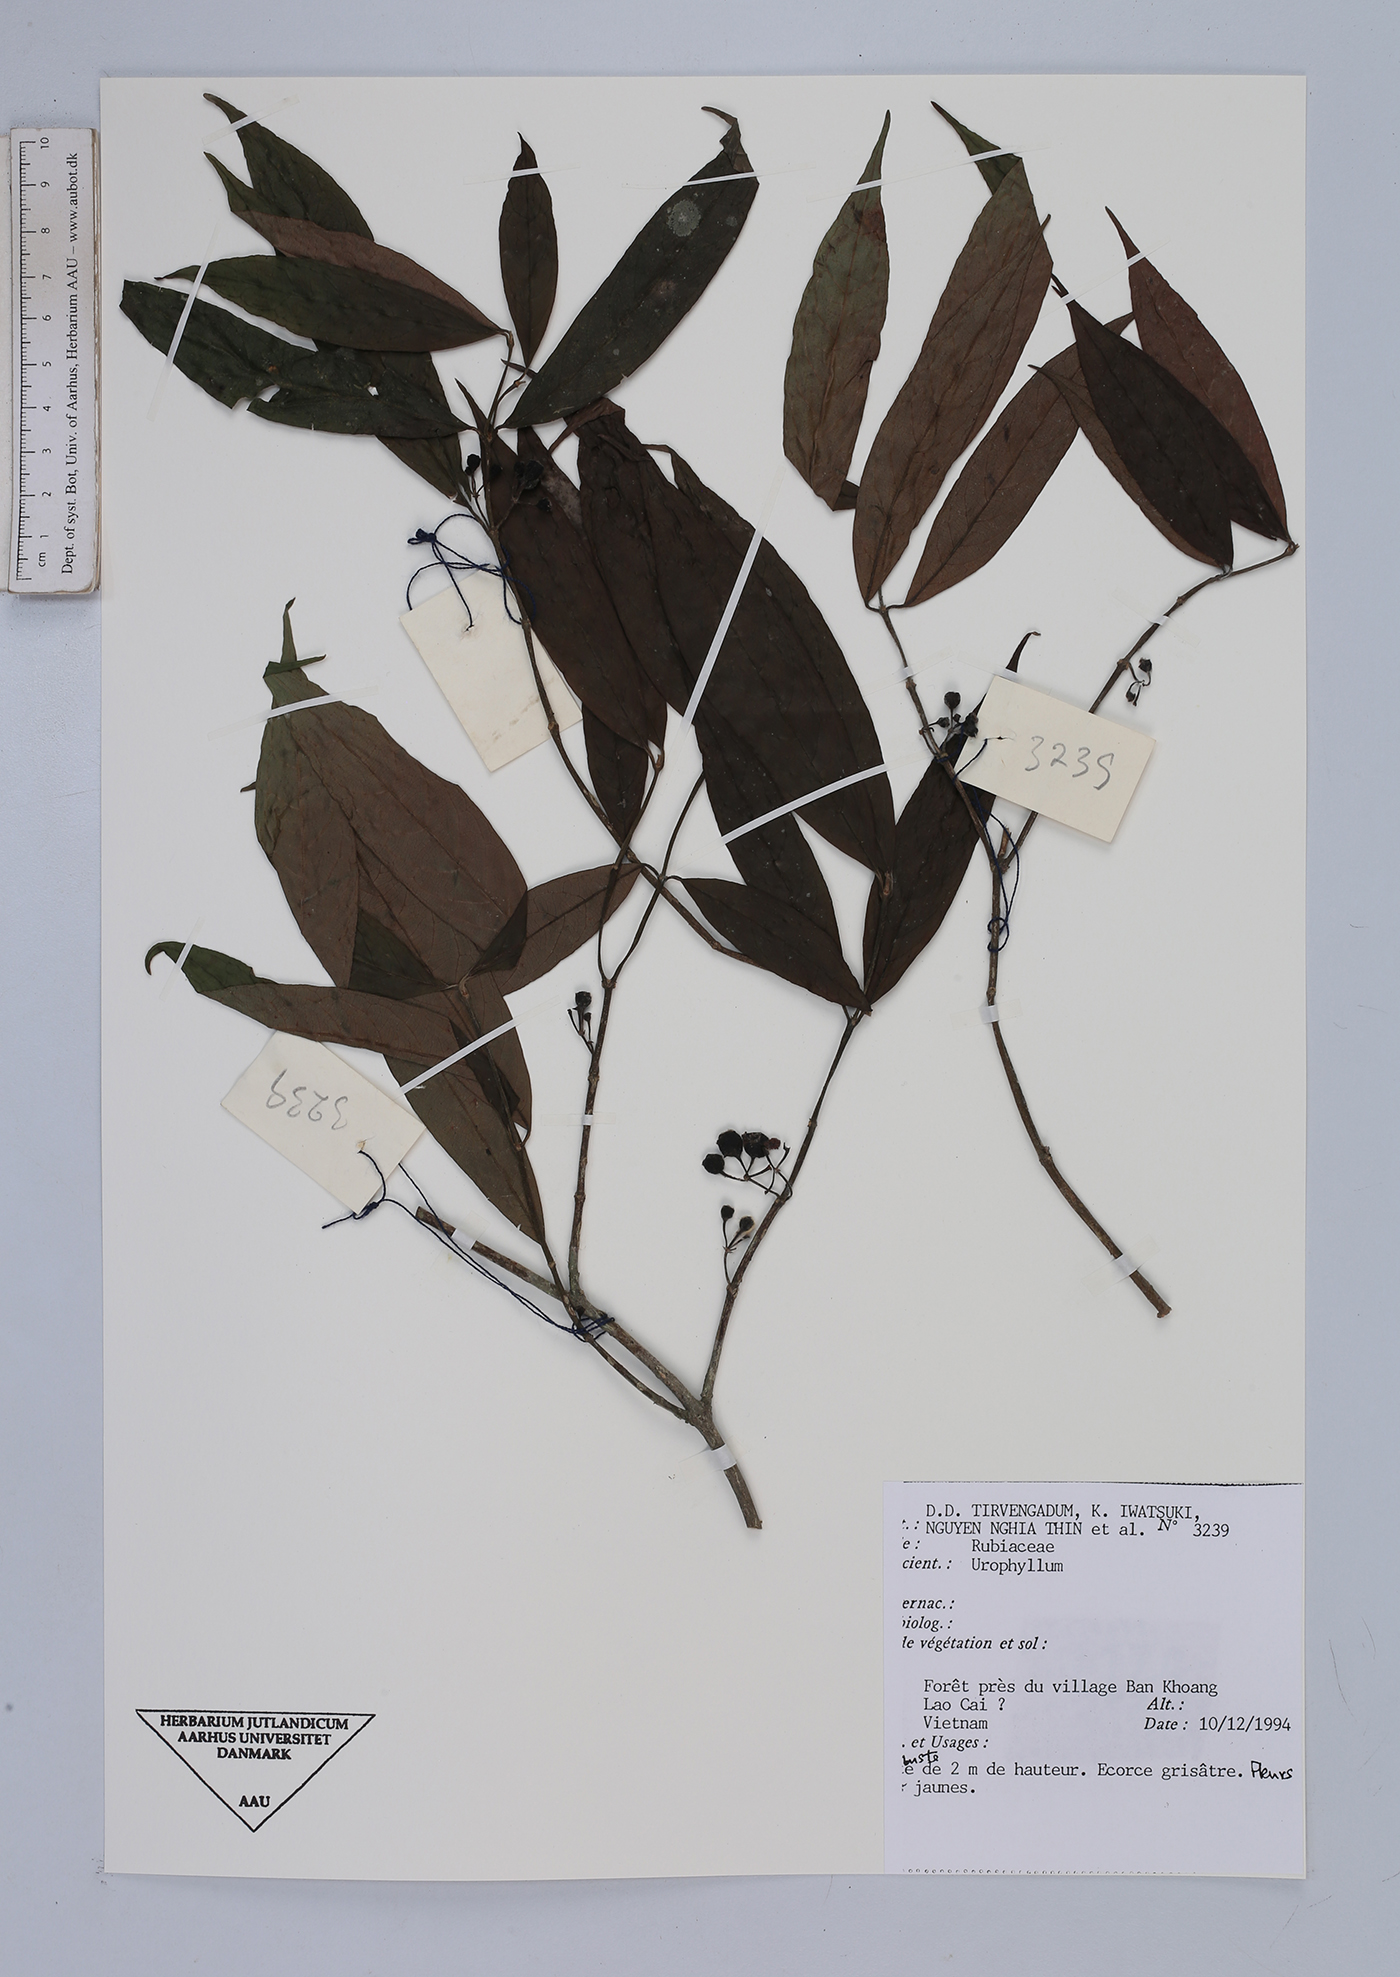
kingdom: Plantae
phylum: Tracheophyta
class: Magnoliopsida
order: Gentianales
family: Rubiaceae
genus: Urophyllum
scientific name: Urophyllum
